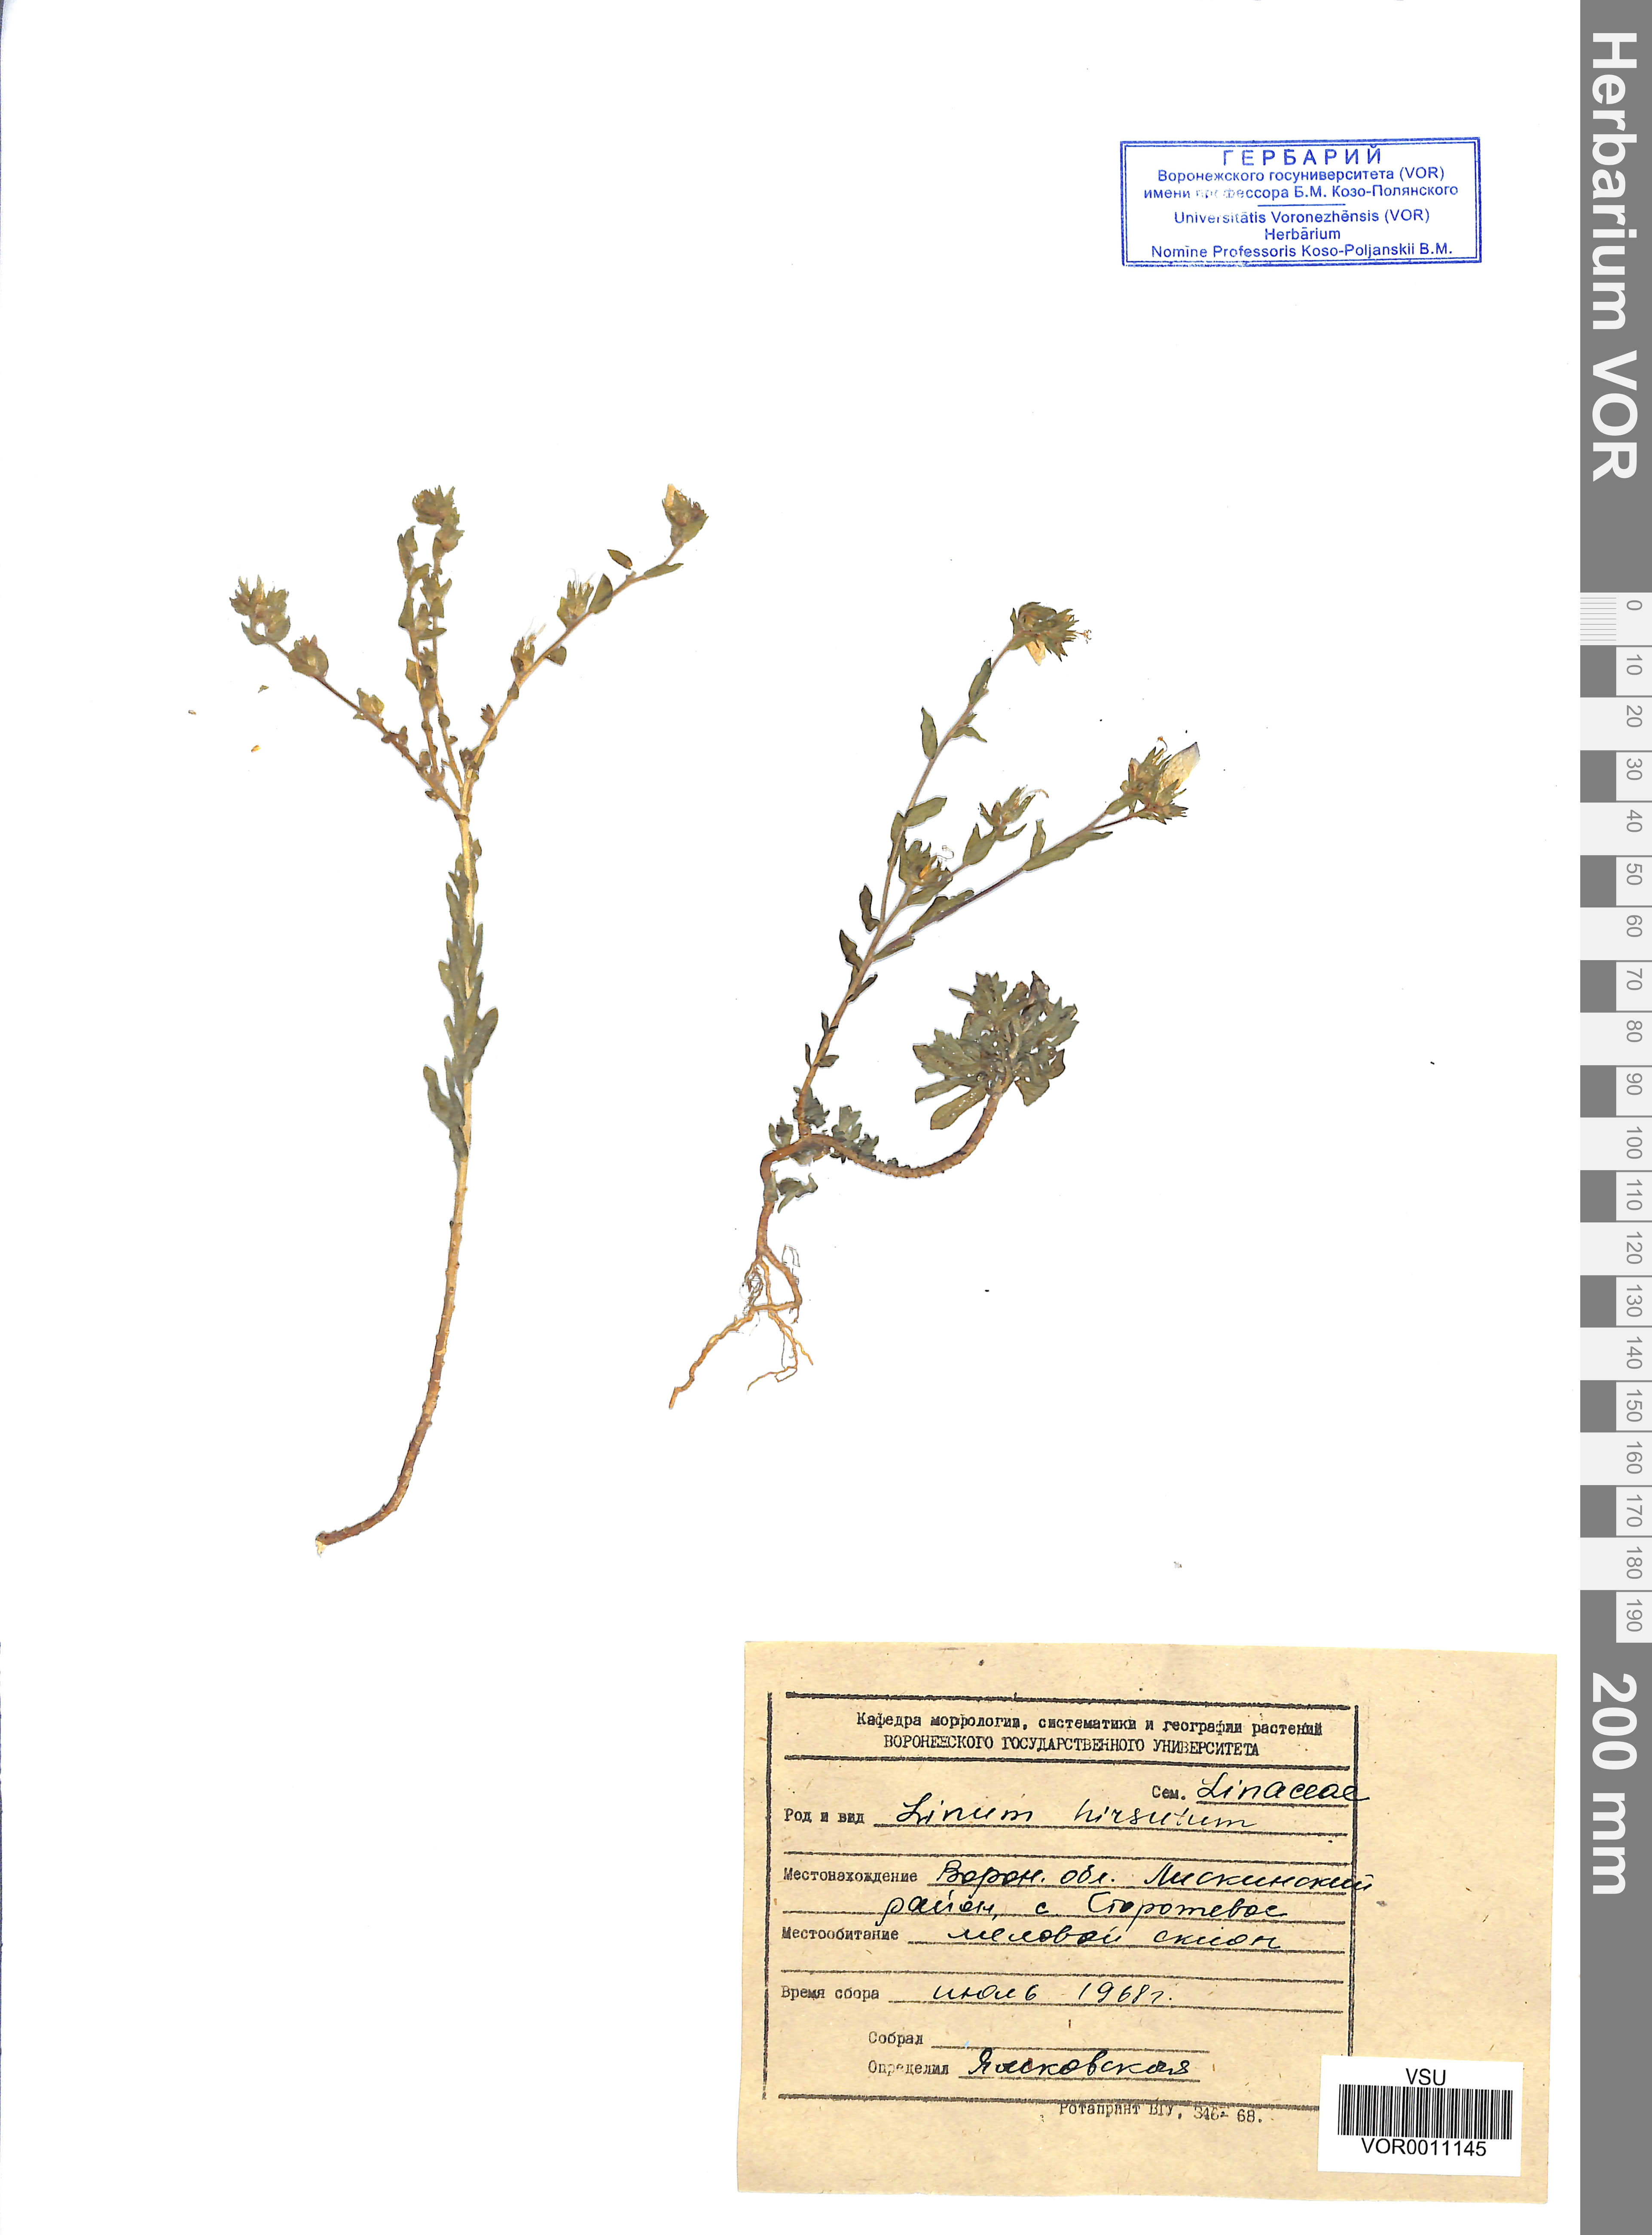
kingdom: Plantae
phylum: Tracheophyta
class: Magnoliopsida
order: Malpighiales
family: Linaceae
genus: Linum
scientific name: Linum hirsutum
